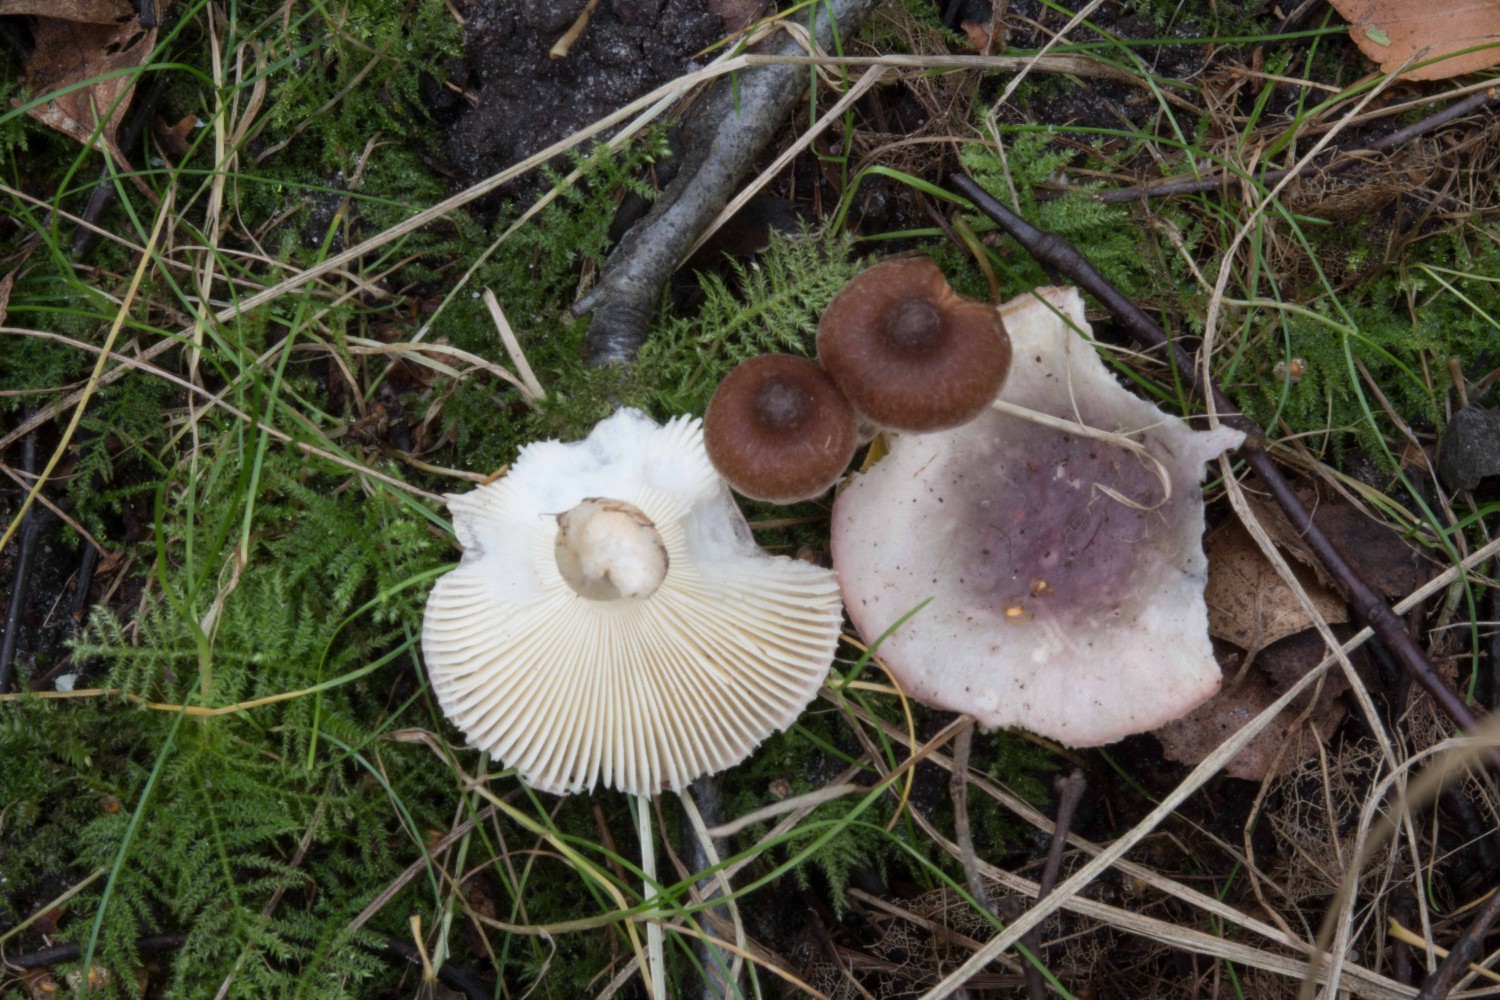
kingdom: Fungi
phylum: Basidiomycota
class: Agaricomycetes
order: Russulales
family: Russulaceae
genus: Russula
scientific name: Russula pelargonia
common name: pelargonie-skørhat
